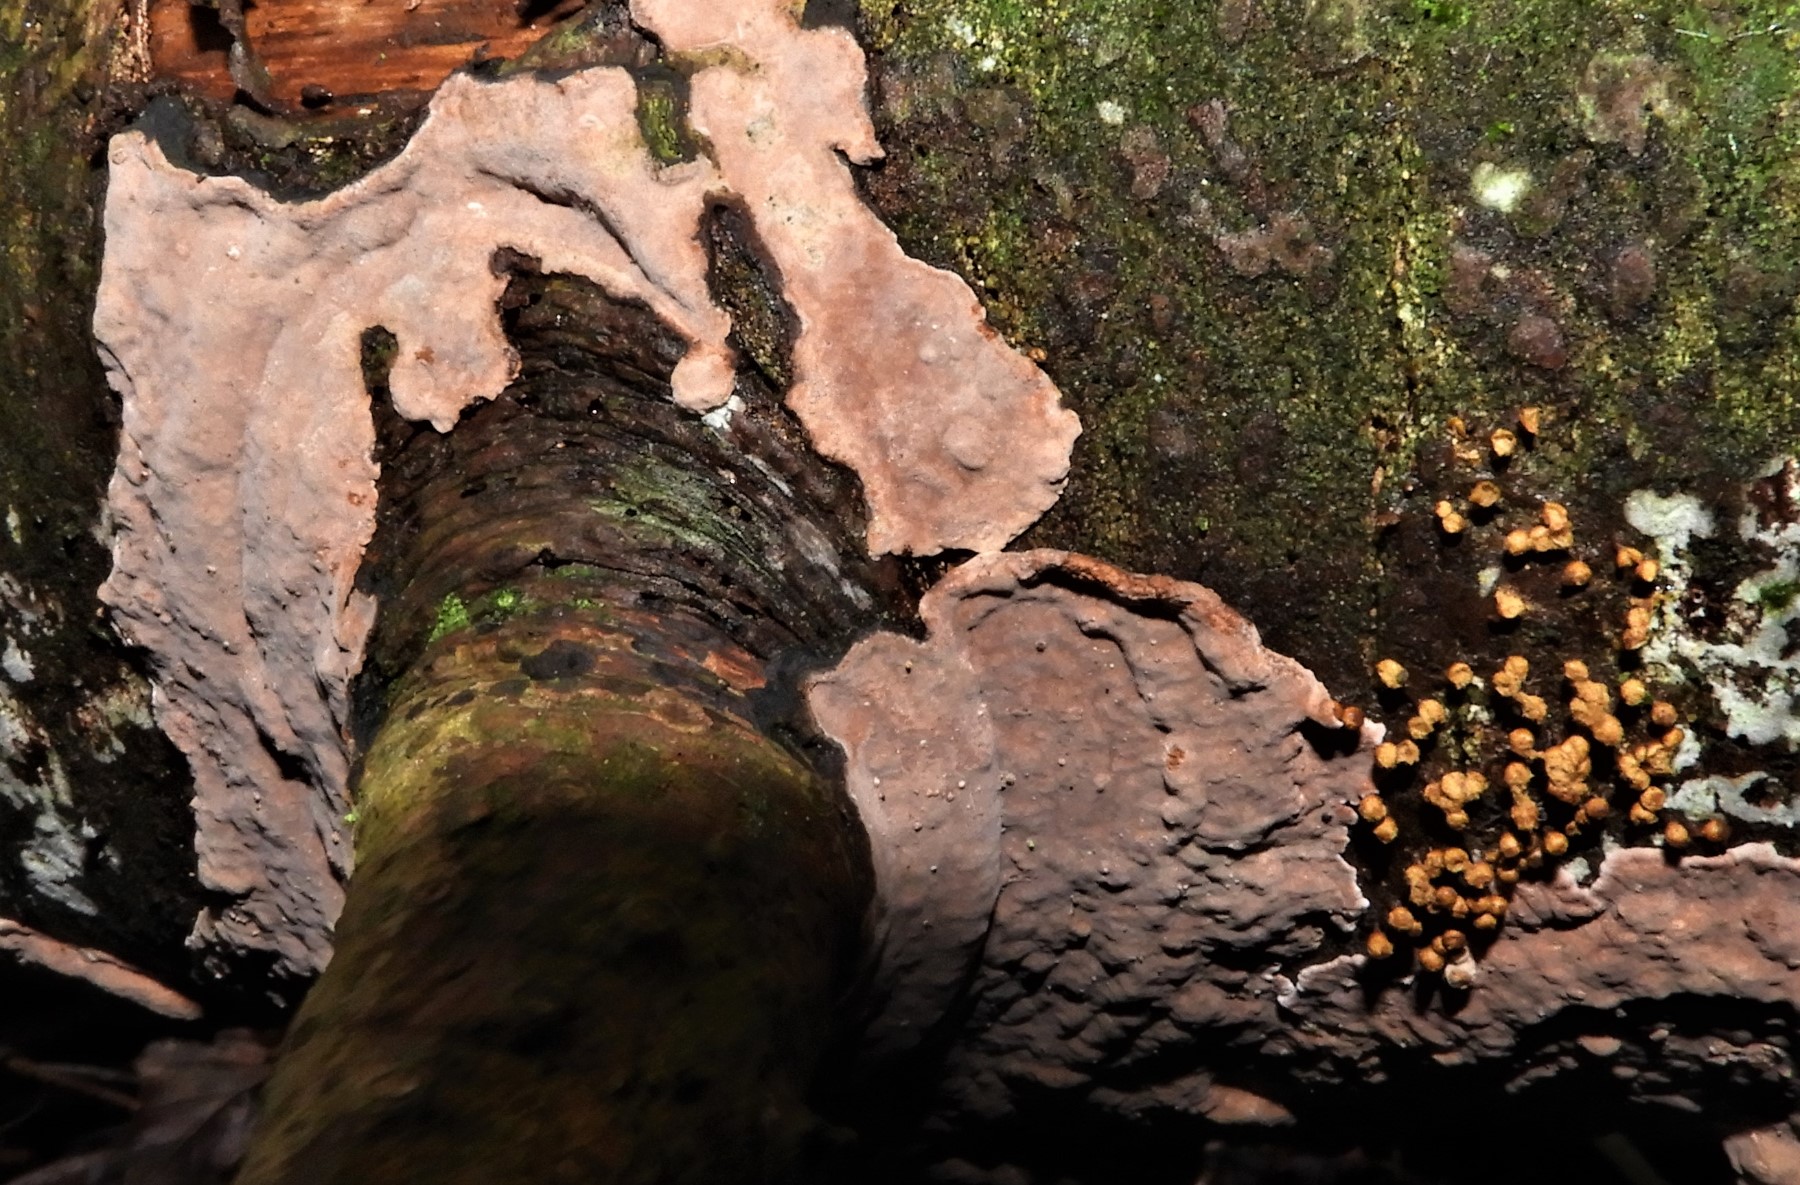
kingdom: Fungi
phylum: Basidiomycota
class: Agaricomycetes
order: Russulales
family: Echinodontiaceae
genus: Amylostereum
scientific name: Amylostereum chailletii
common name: gran-lædersvamp
